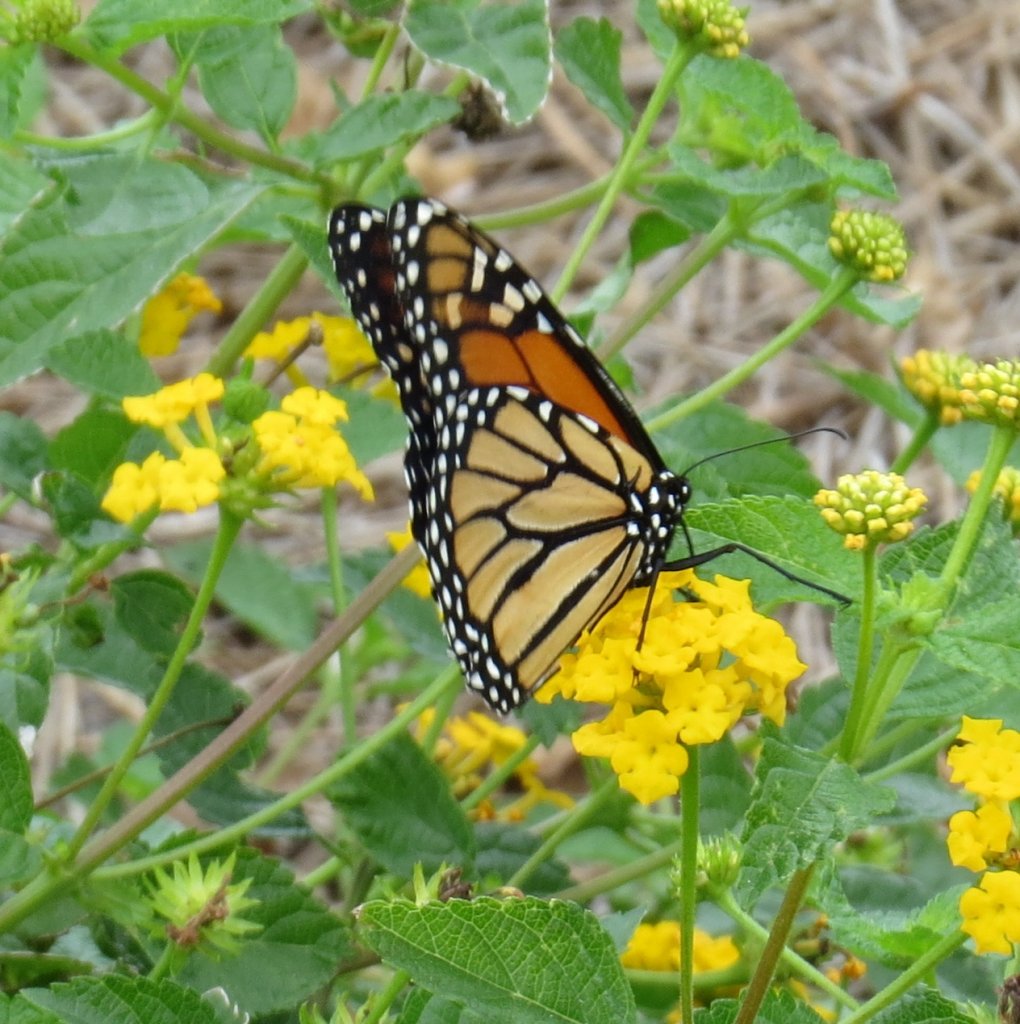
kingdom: Animalia
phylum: Arthropoda
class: Insecta
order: Lepidoptera
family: Nymphalidae
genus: Danaus
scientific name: Danaus plexippus
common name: Monarch
